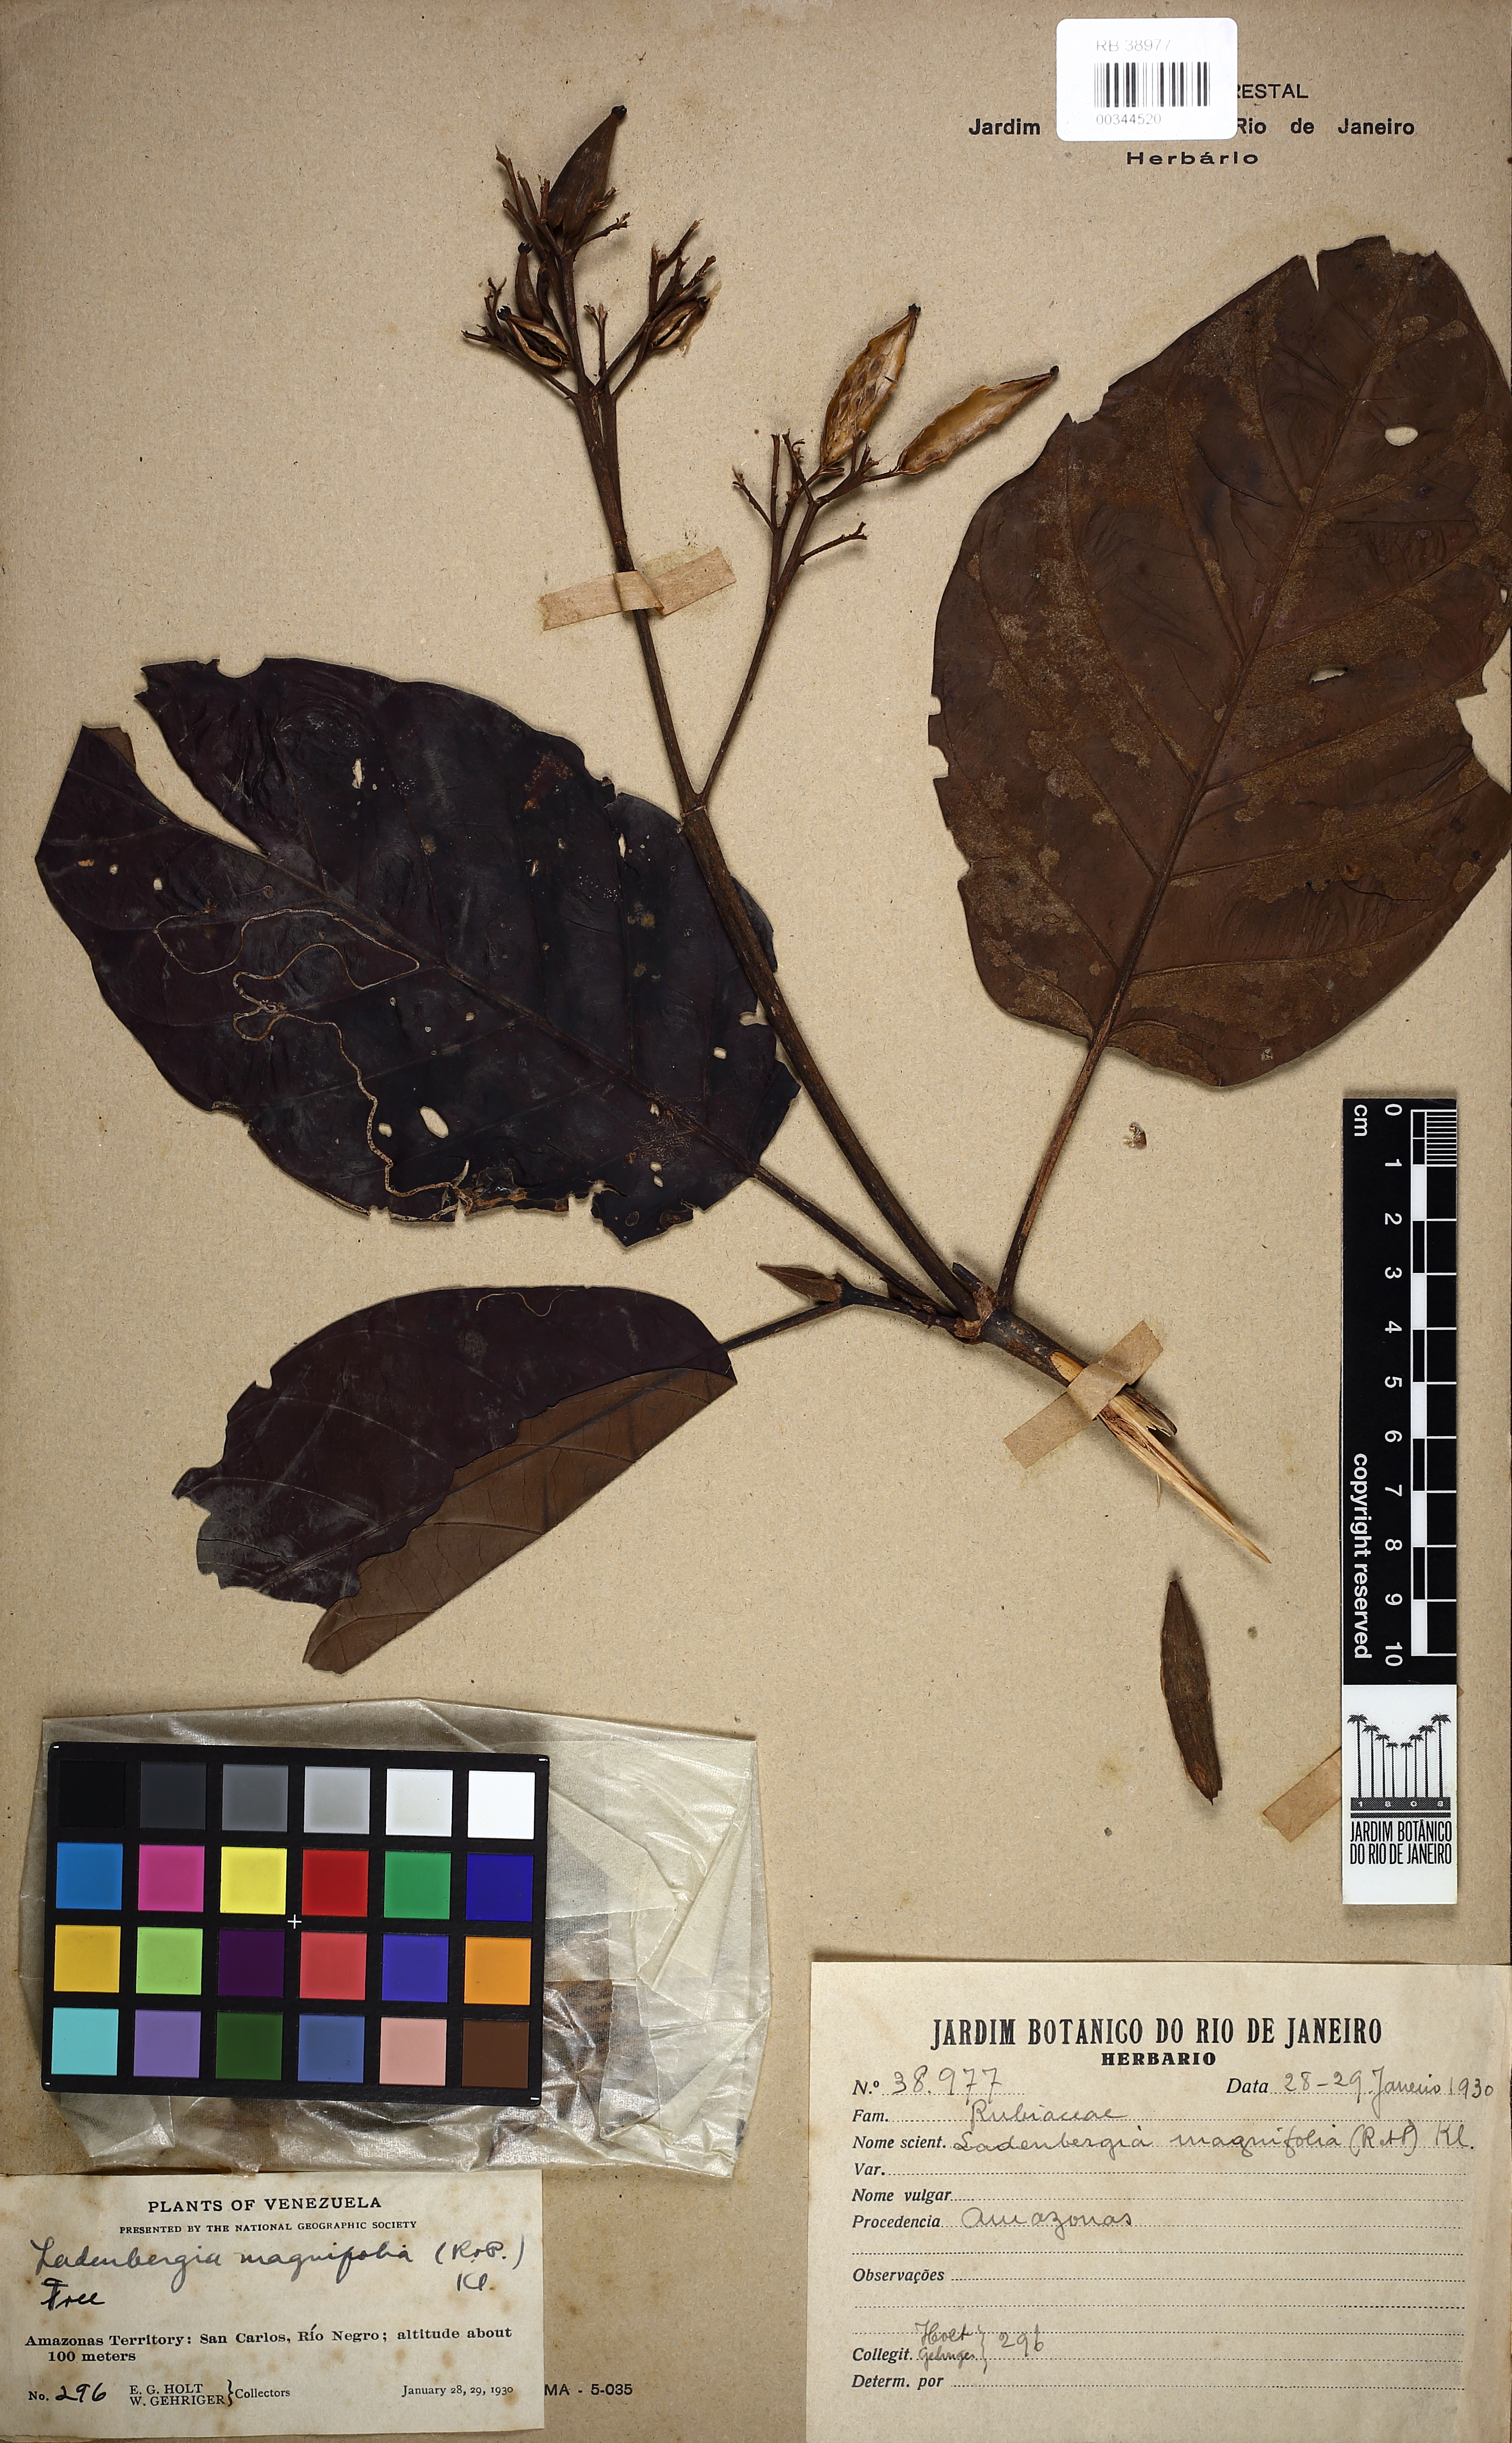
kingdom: Plantae
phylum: Tracheophyta
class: Magnoliopsida
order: Gentianales
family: Rubiaceae
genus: Ladenbergia
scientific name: Ladenbergia amazonensis
